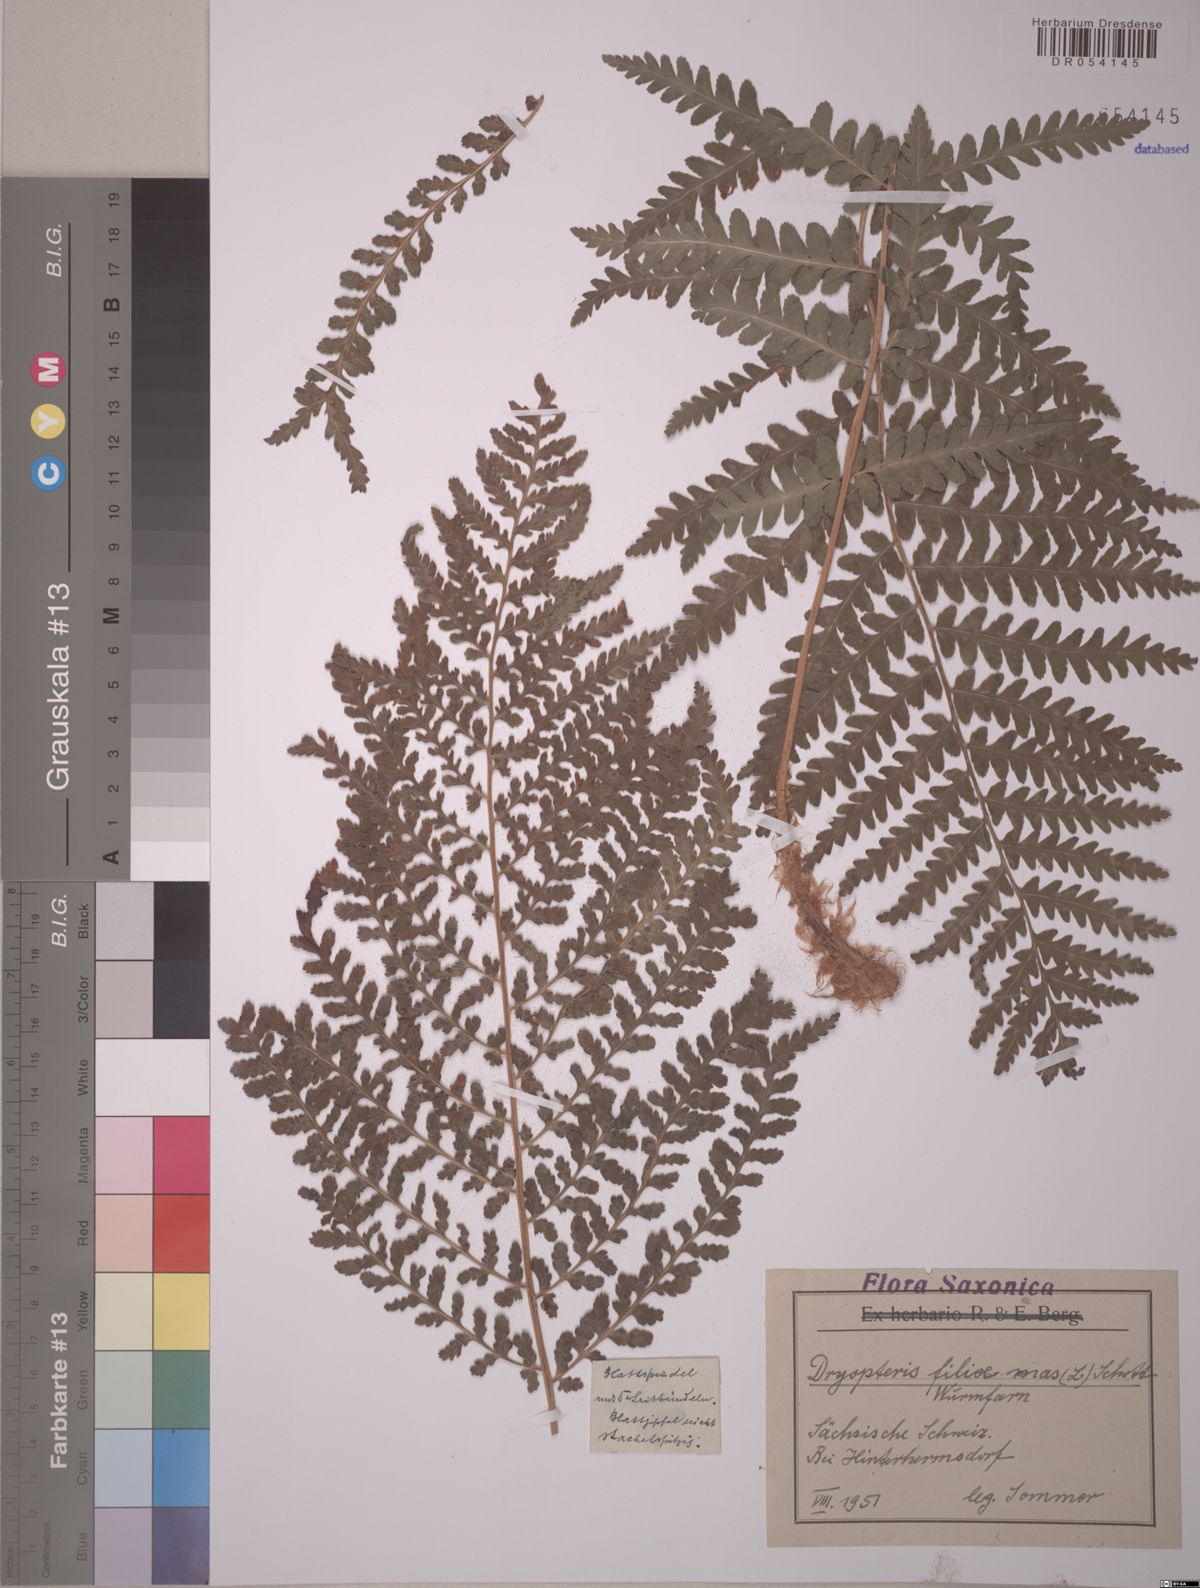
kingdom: Plantae
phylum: Tracheophyta
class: Polypodiopsida
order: Polypodiales
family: Dryopteridaceae
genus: Dryopteris
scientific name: Dryopteris filix-mas
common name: Male fern
